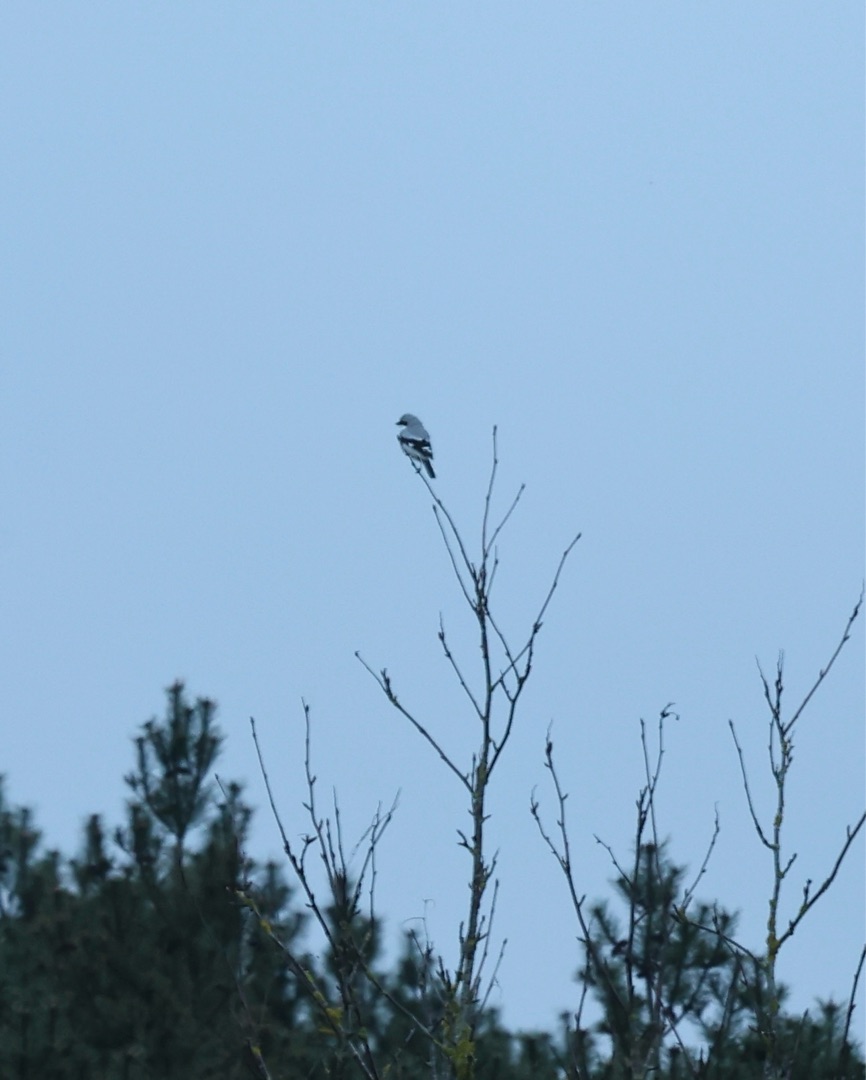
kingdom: Animalia
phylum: Chordata
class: Aves
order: Passeriformes
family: Laniidae
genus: Lanius
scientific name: Lanius excubitor
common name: Stor tornskade
